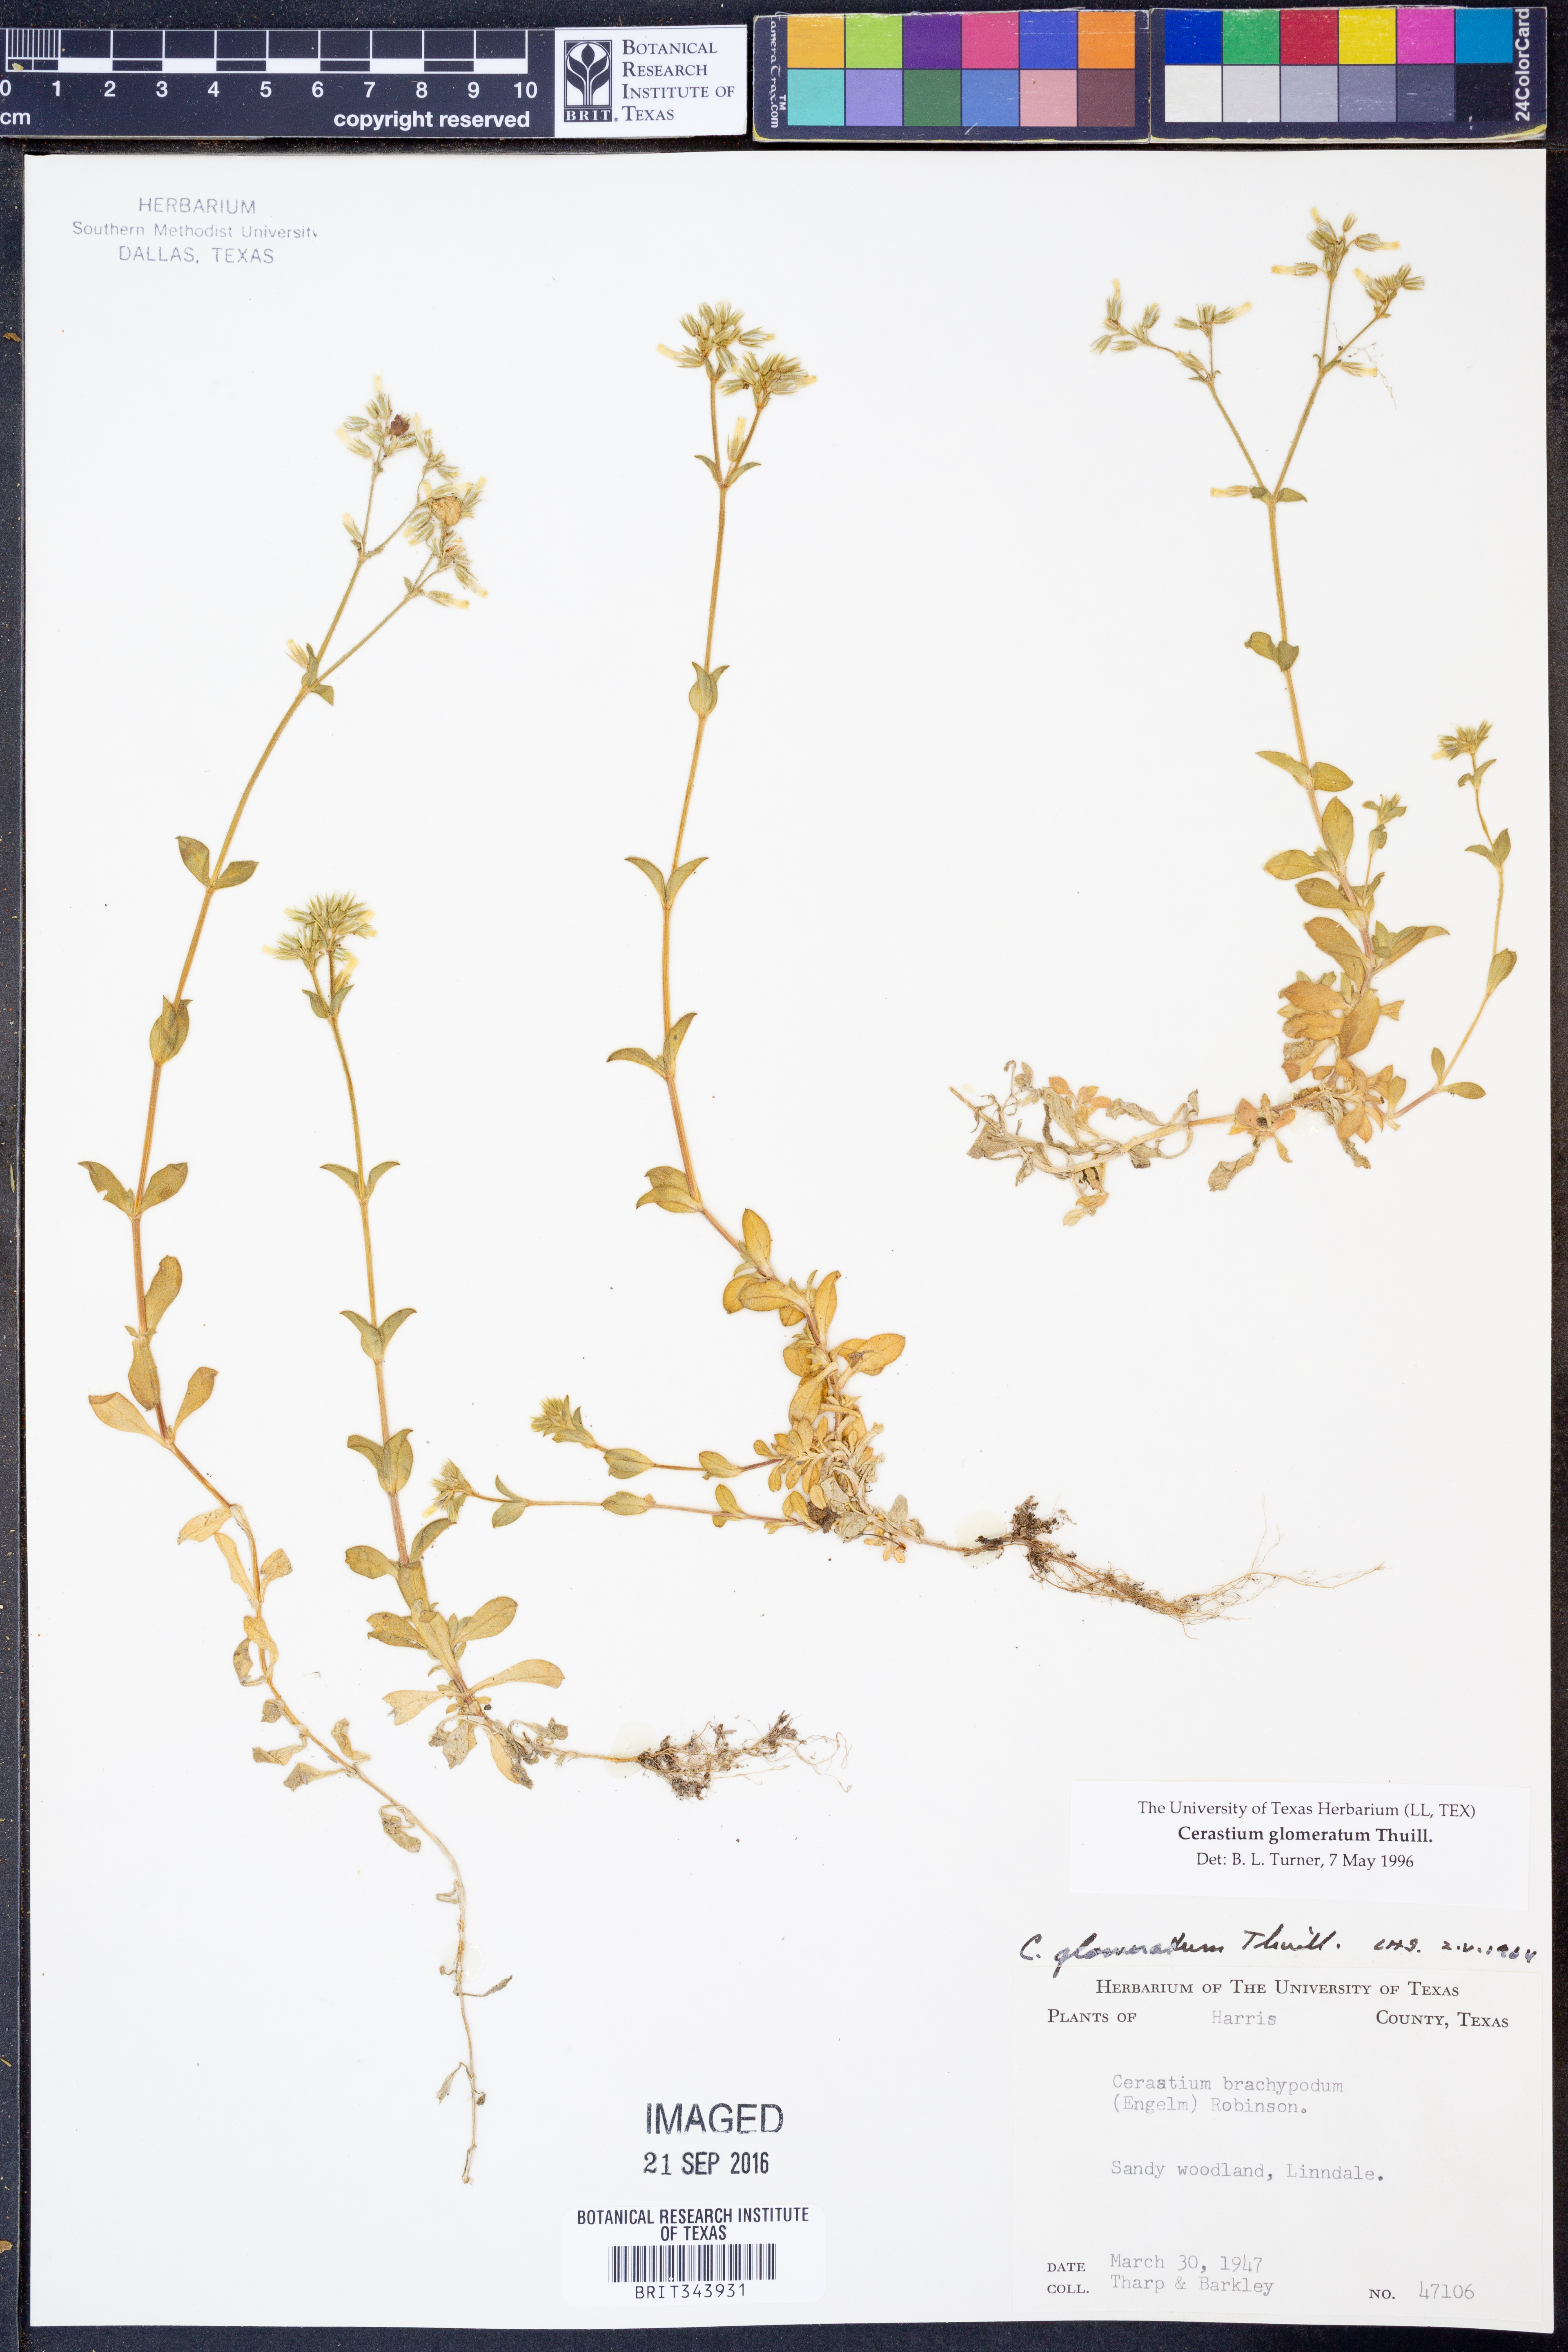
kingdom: Plantae
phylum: Tracheophyta
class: Magnoliopsida
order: Caryophyllales
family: Caryophyllaceae
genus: Cerastium
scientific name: Cerastium glomeratum
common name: Sticky chickweed
